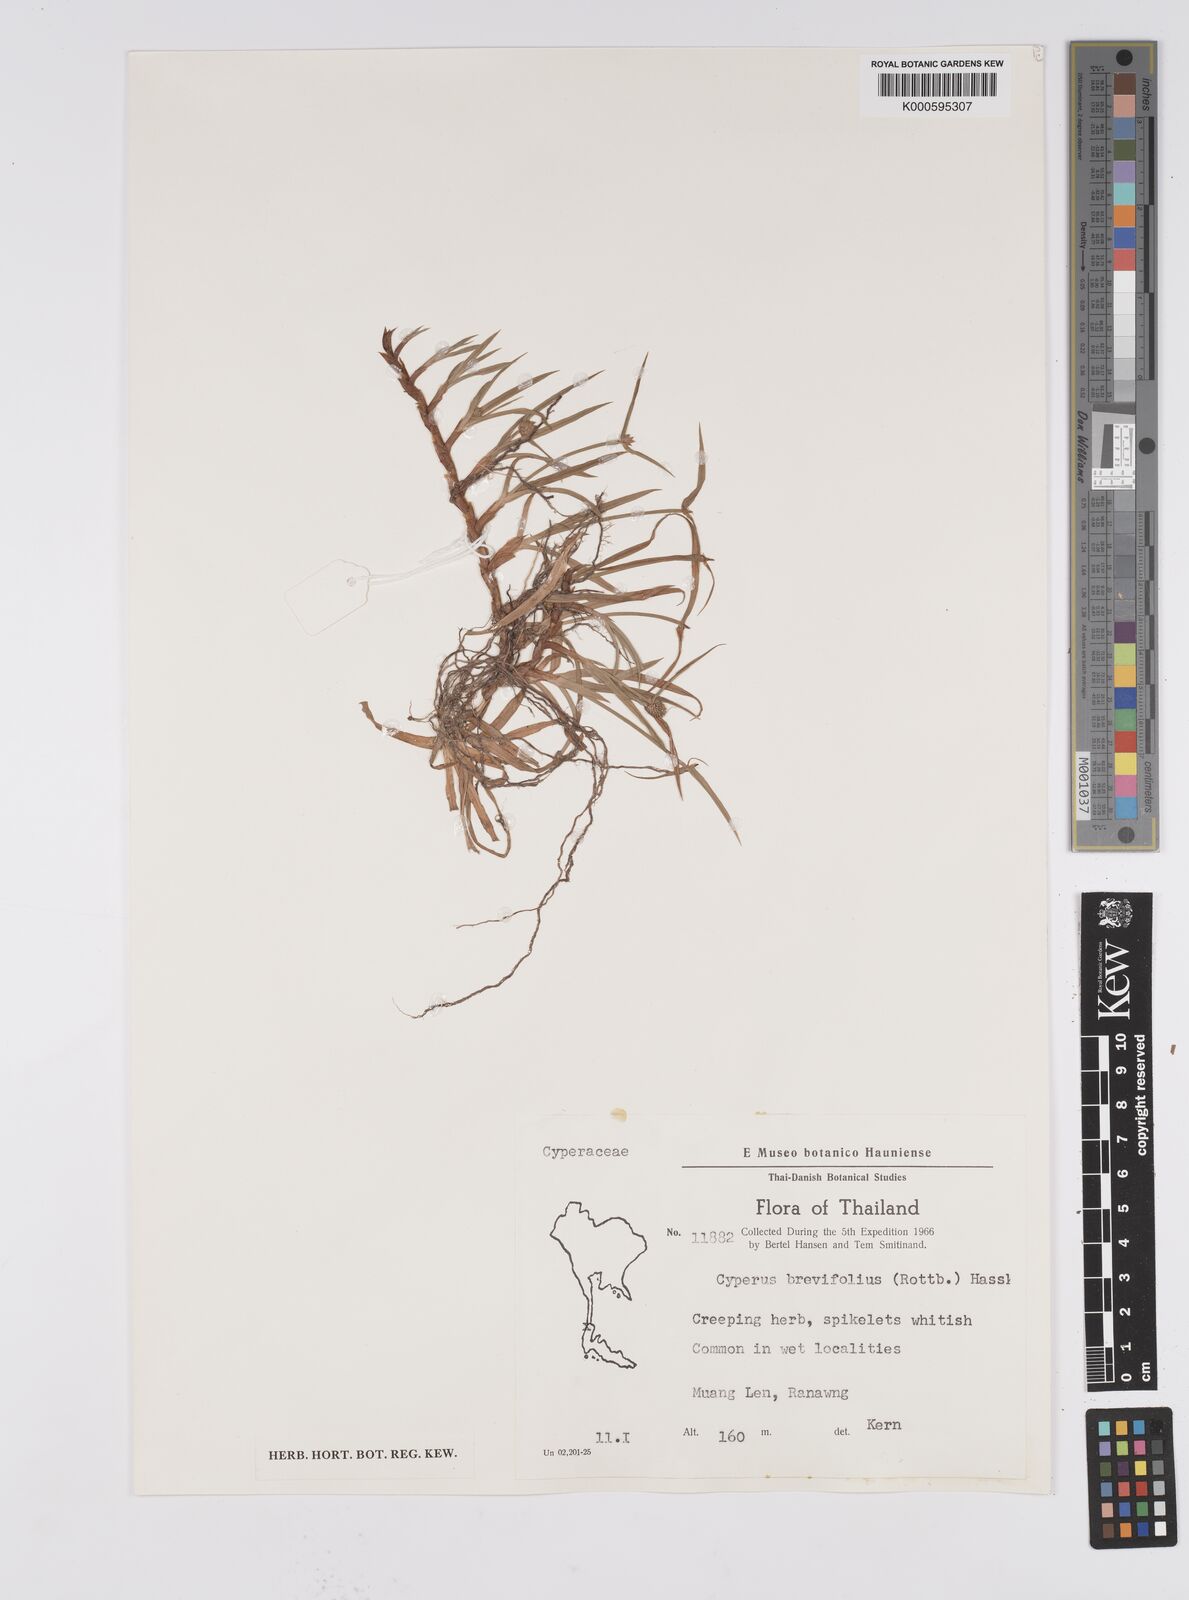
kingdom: Plantae
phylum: Tracheophyta
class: Liliopsida
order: Poales
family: Cyperaceae
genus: Cyperus
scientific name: Cyperus brevifolius
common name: Globe kyllinga
